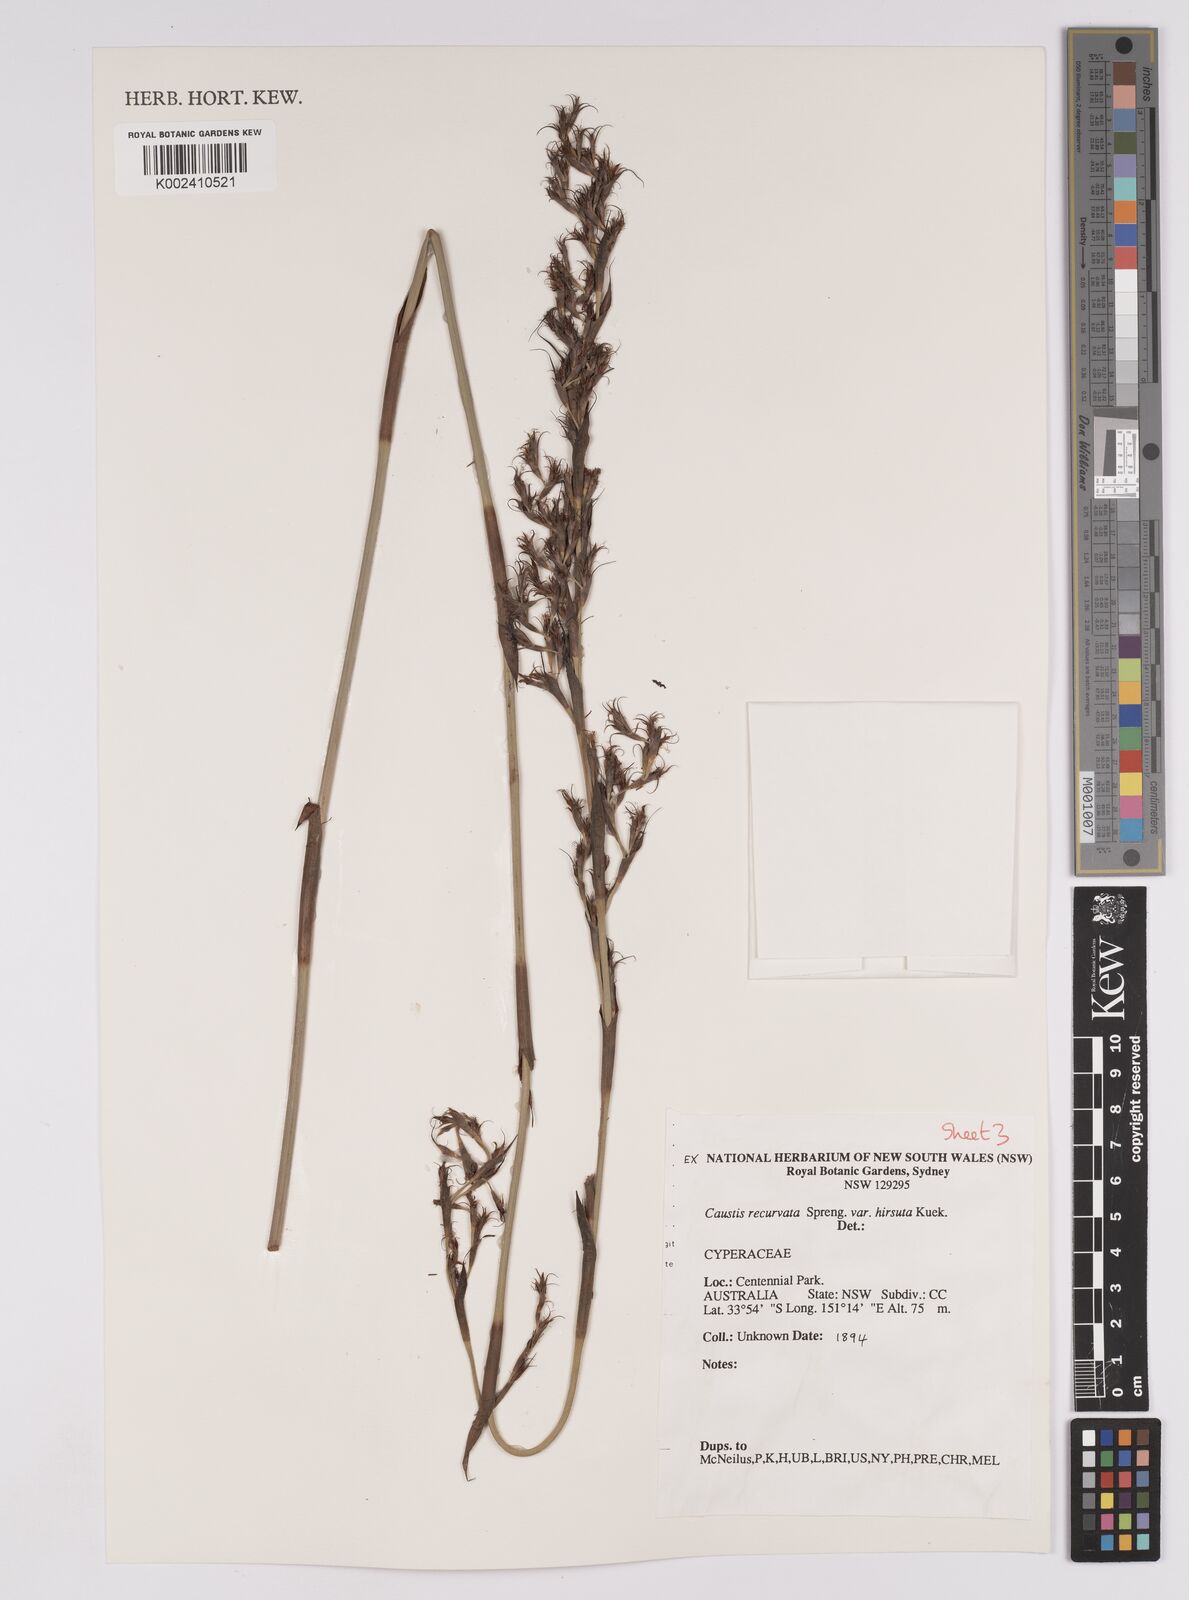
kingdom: Plantae
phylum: Tracheophyta
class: Liliopsida
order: Poales
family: Cyperaceae
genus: Caustis
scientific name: Caustis recurvata
